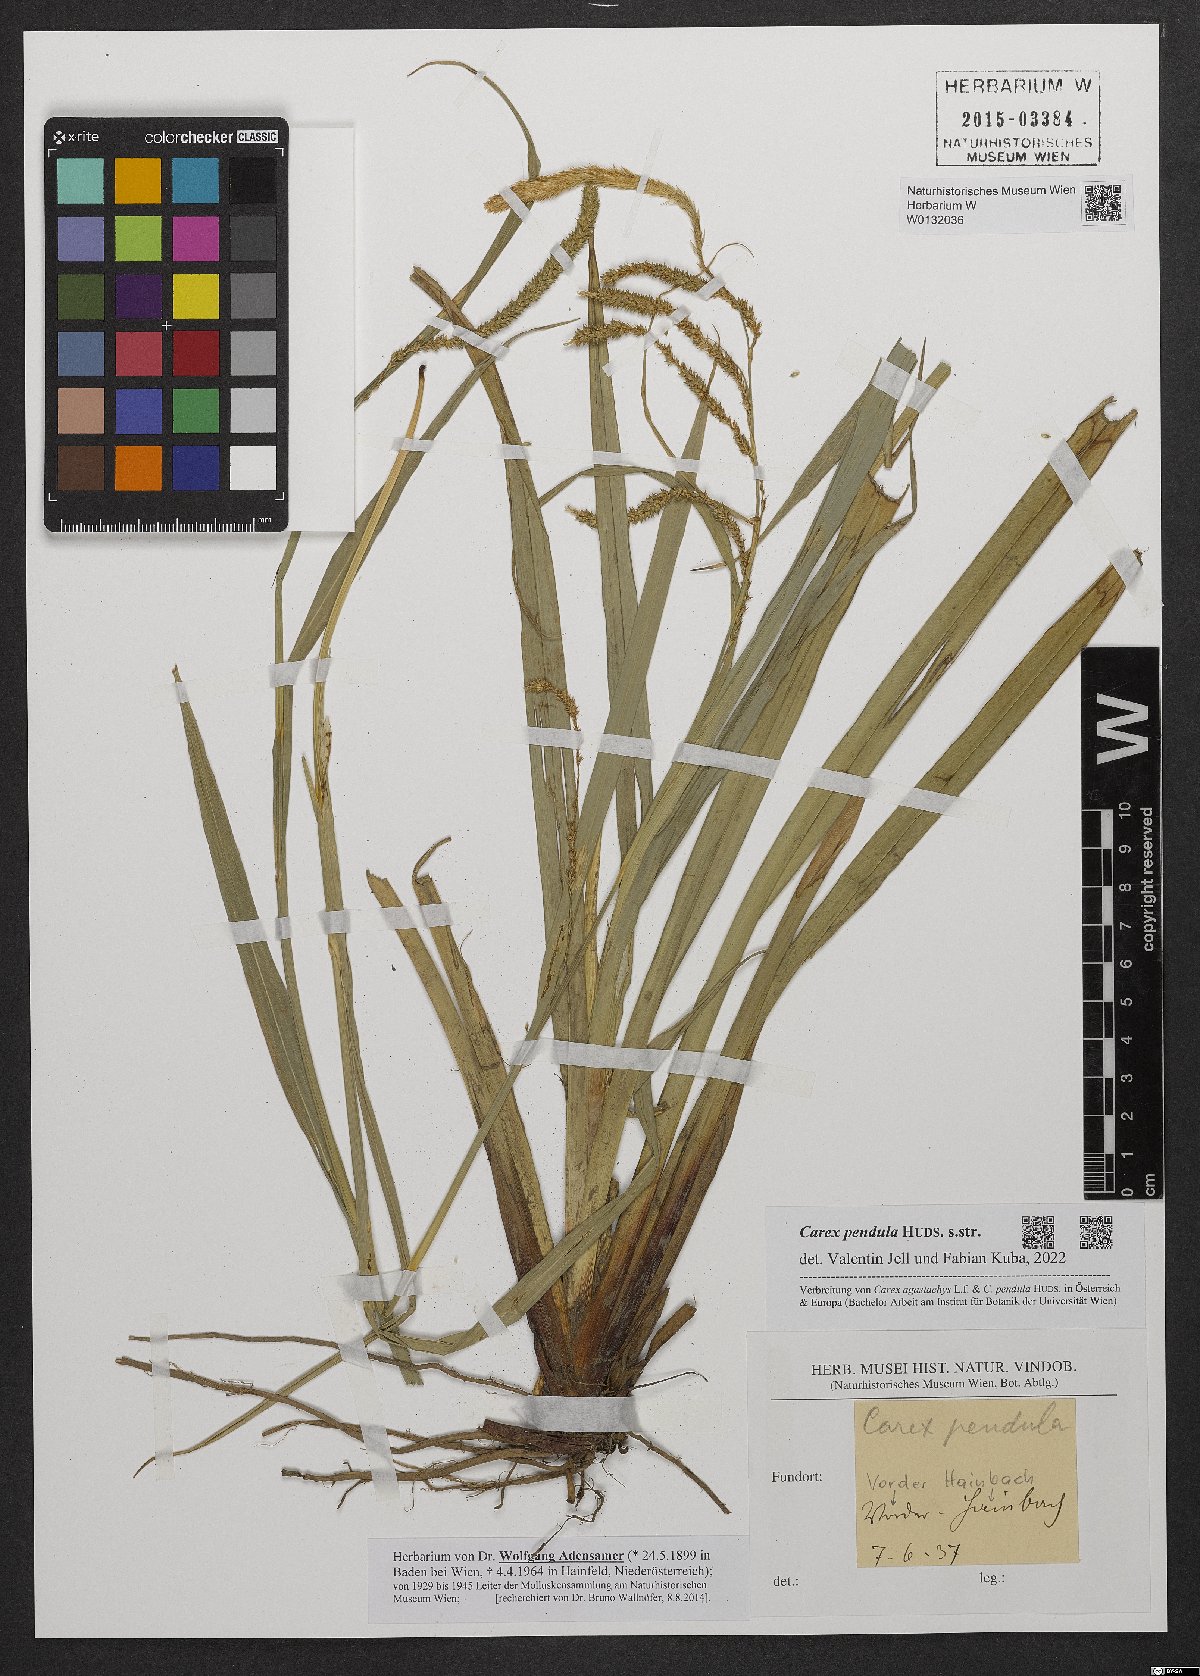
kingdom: Plantae
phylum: Tracheophyta
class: Liliopsida
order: Poales
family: Cyperaceae
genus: Carex
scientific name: Carex pendula
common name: Pendulous sedge
